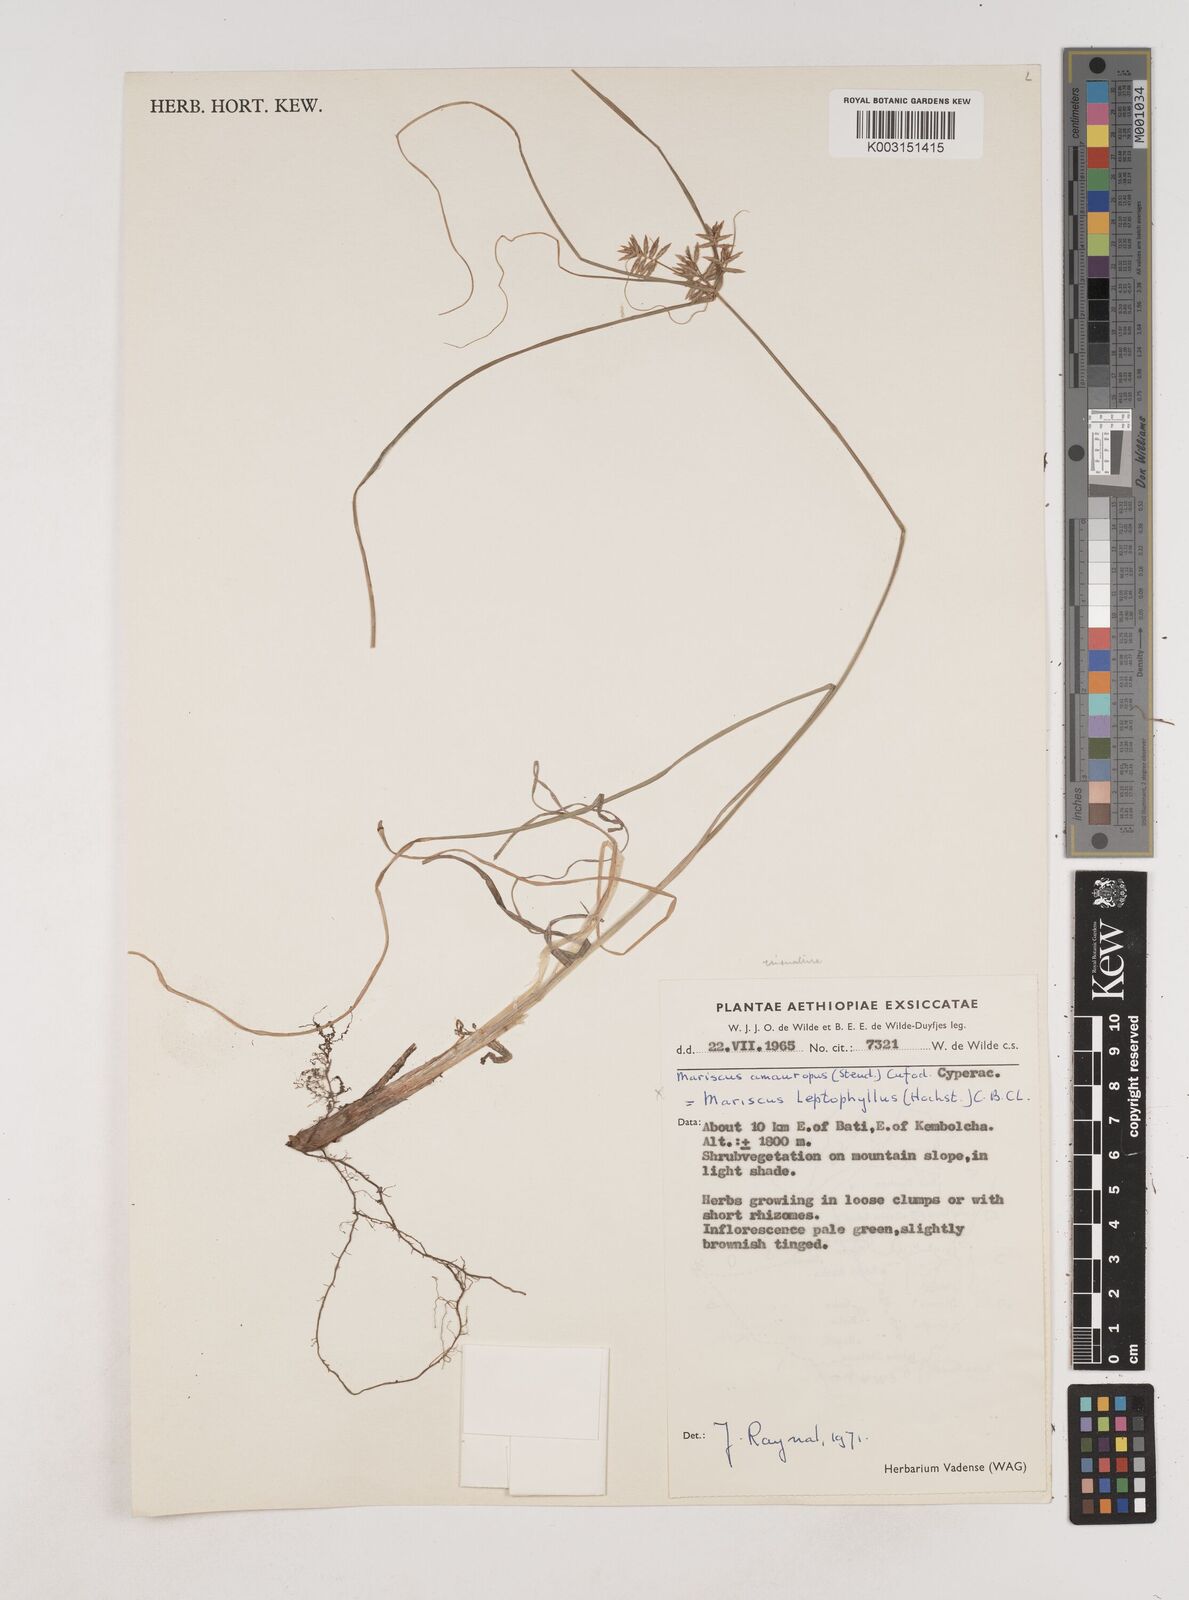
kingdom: Plantae
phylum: Tracheophyta
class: Liliopsida
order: Poales
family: Cyperaceae
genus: Cyperus
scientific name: Cyperus amauropus
